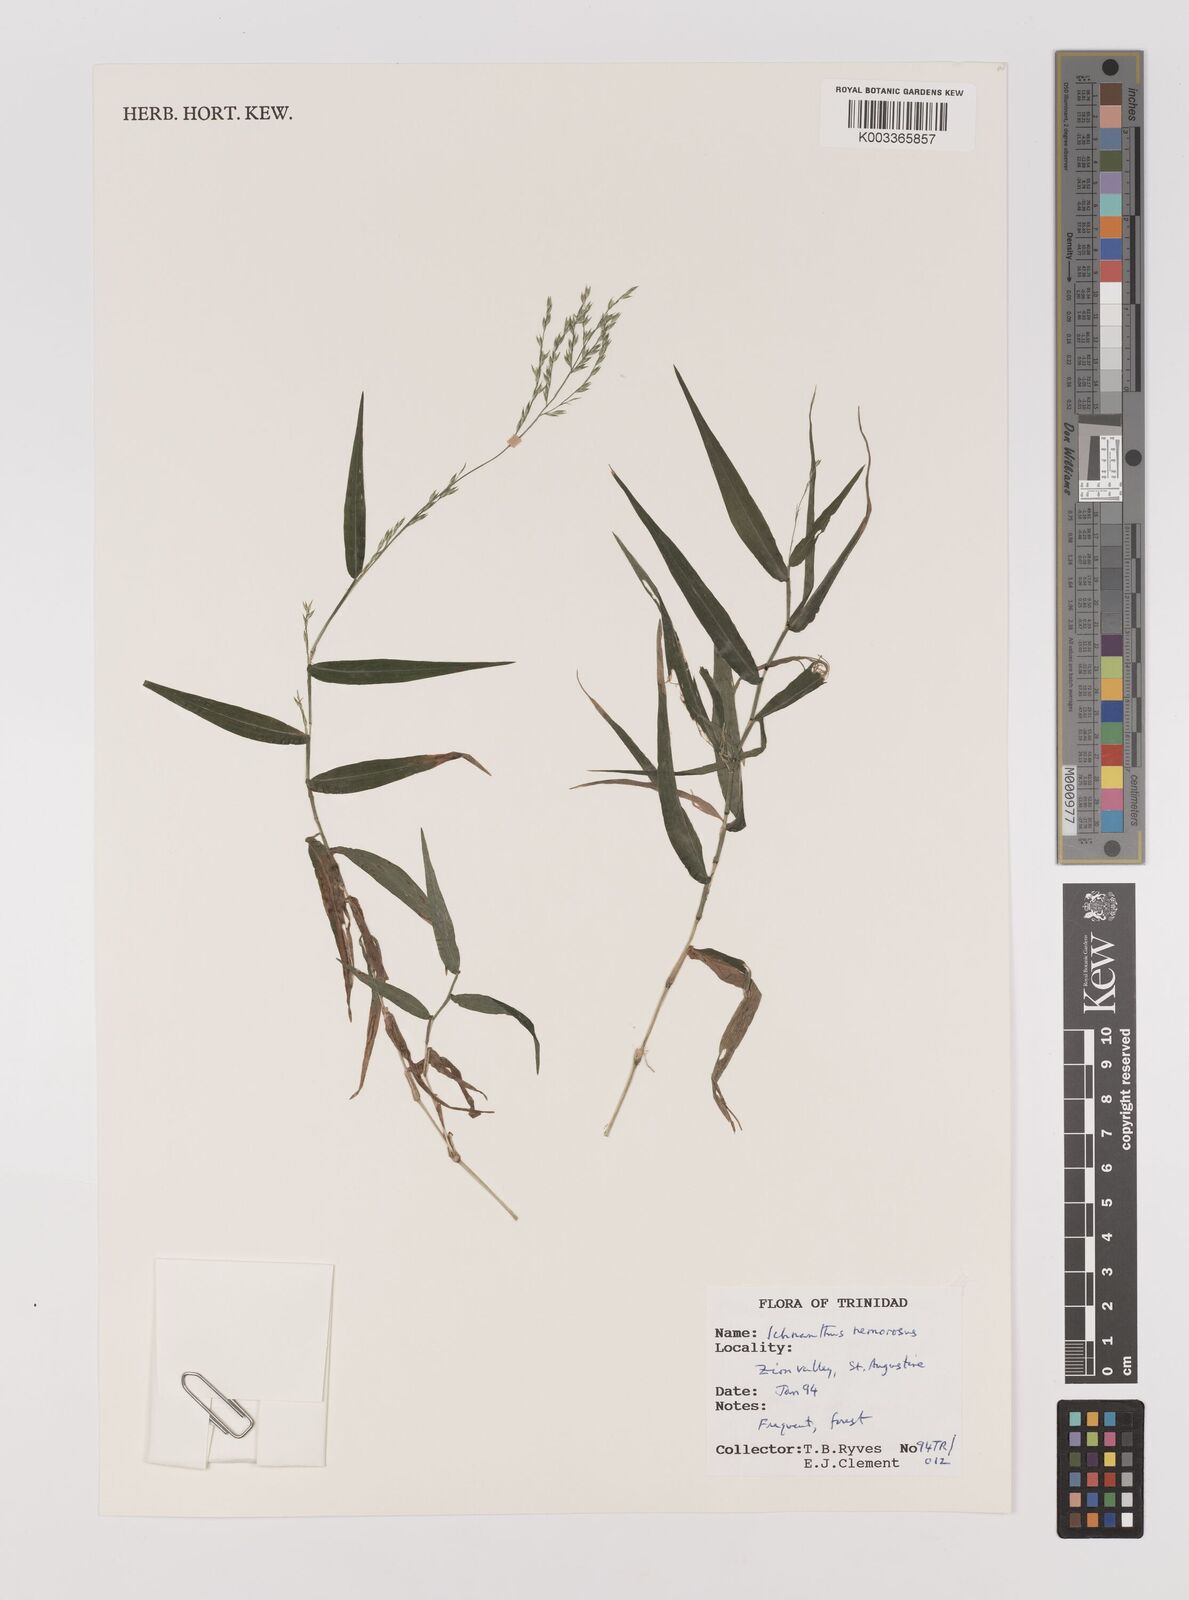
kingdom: Plantae
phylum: Tracheophyta
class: Liliopsida
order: Poales
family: Poaceae
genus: Ichnanthus
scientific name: Ichnanthus nemorosus
